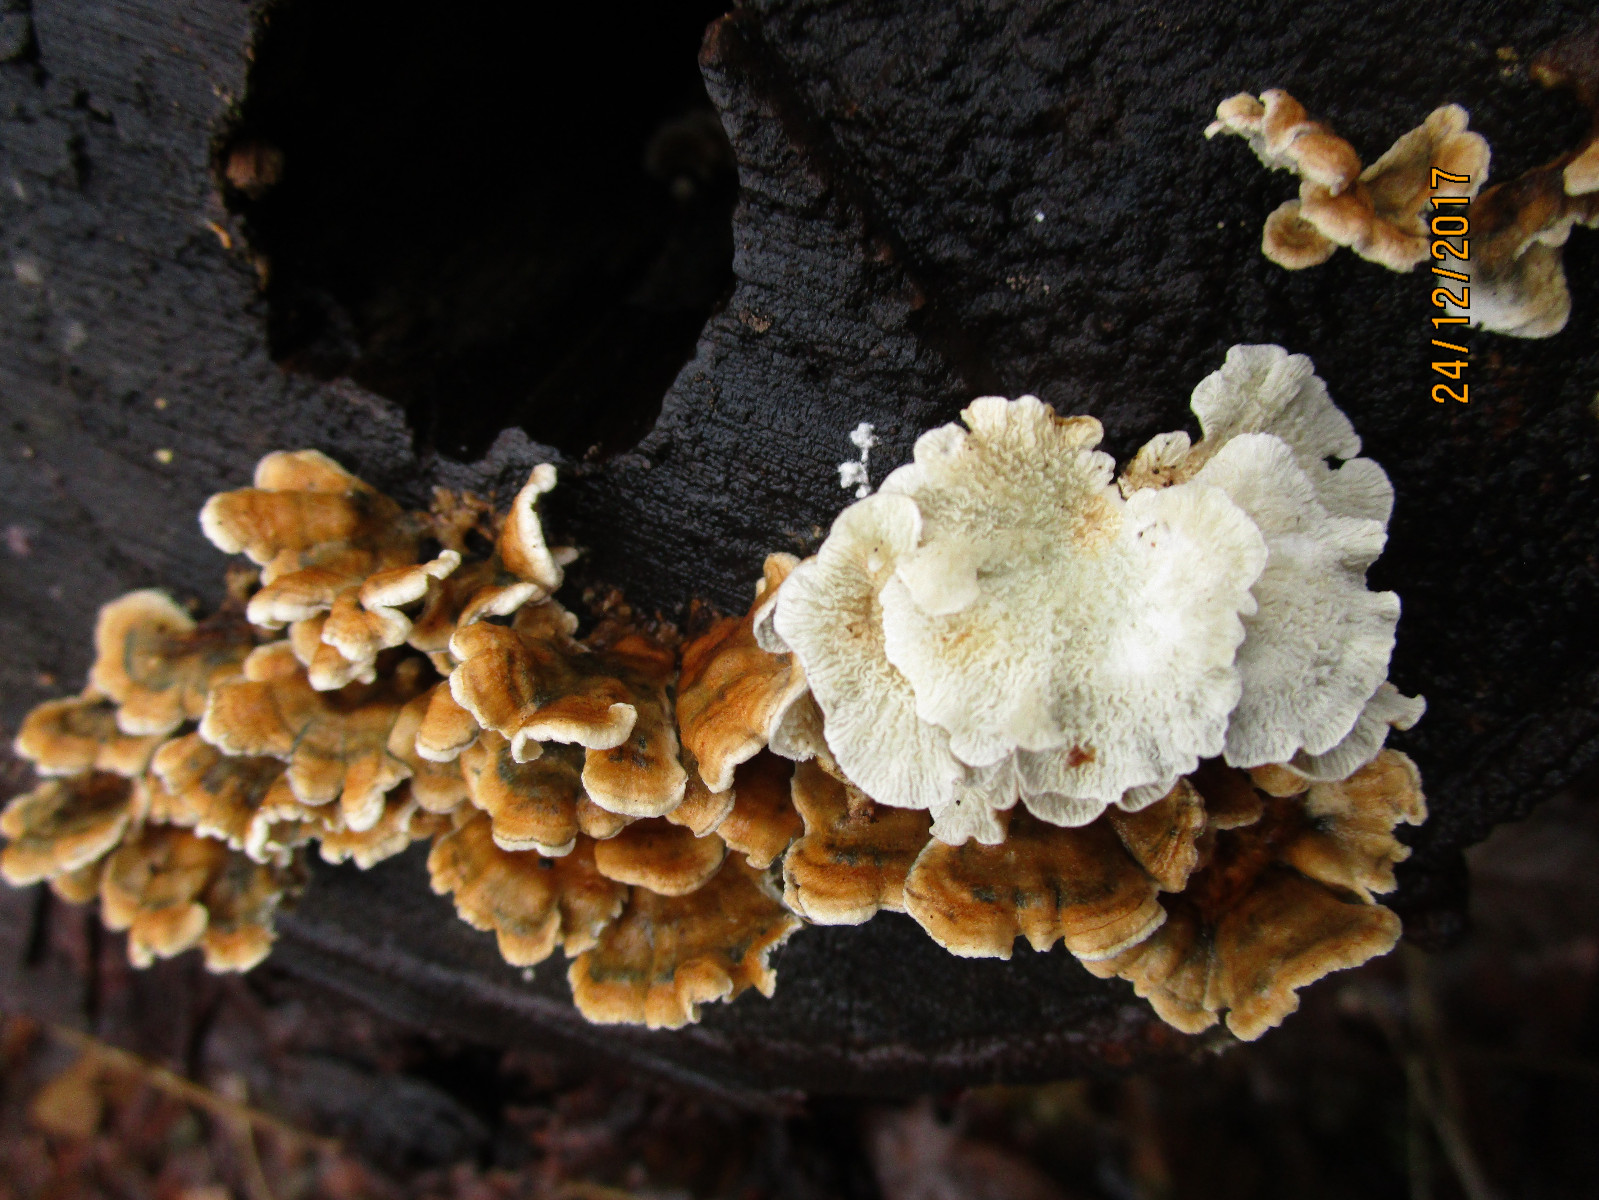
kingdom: Fungi
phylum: Basidiomycota
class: Agaricomycetes
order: Amylocorticiales
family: Amylocorticiaceae
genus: Plicaturopsis
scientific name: Plicaturopsis crispa
